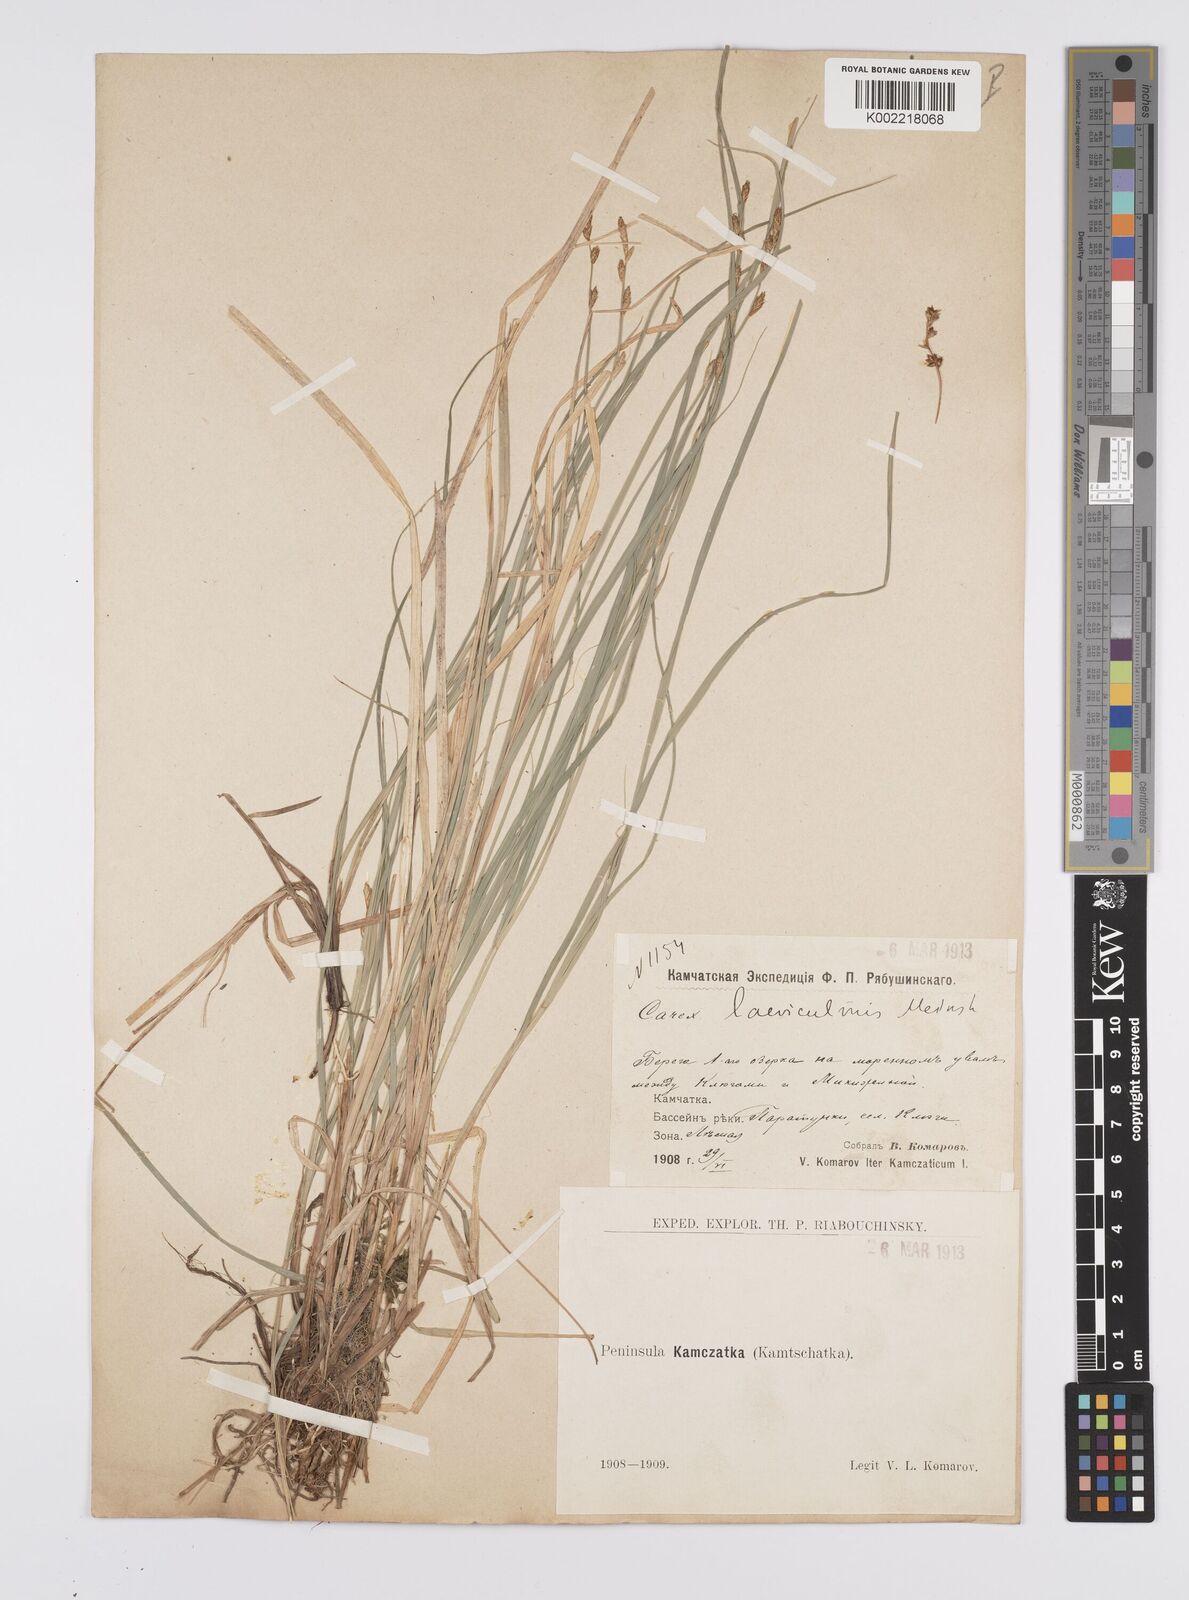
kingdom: Plantae
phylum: Tracheophyta
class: Liliopsida
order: Poales
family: Cyperaceae
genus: Carex
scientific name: Carex laeviculmis
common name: Smooth sedge
